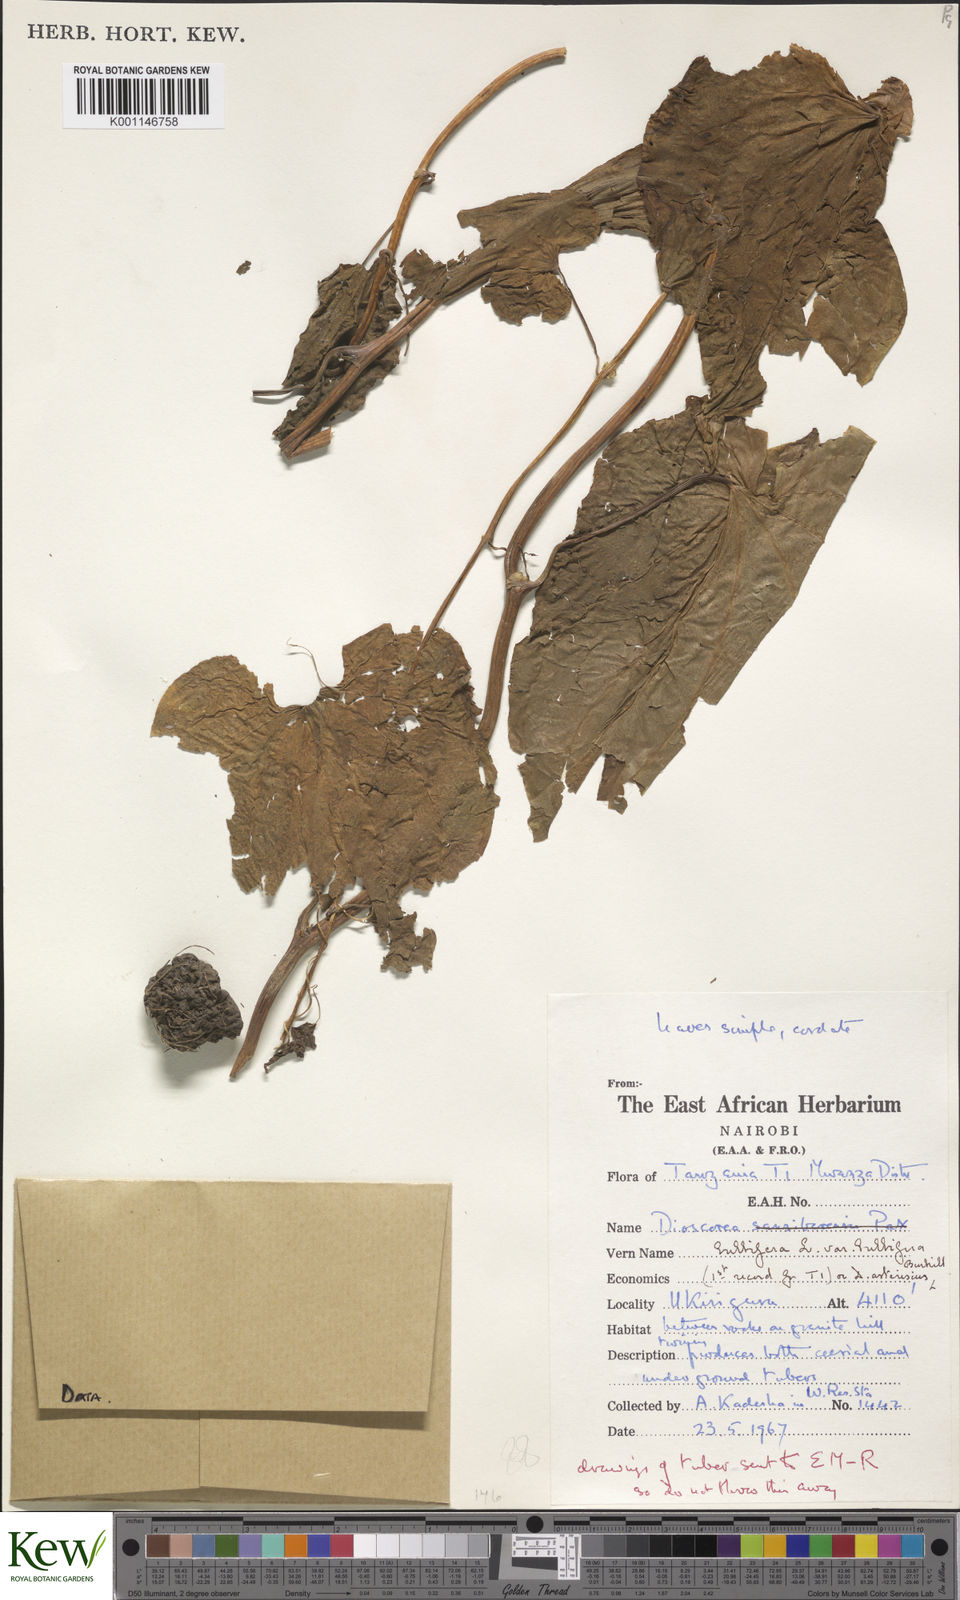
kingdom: Plantae
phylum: Tracheophyta
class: Liliopsida
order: Dioscoreales
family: Dioscoreaceae
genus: Dioscorea
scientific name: Dioscorea bulbifera
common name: Air yam
